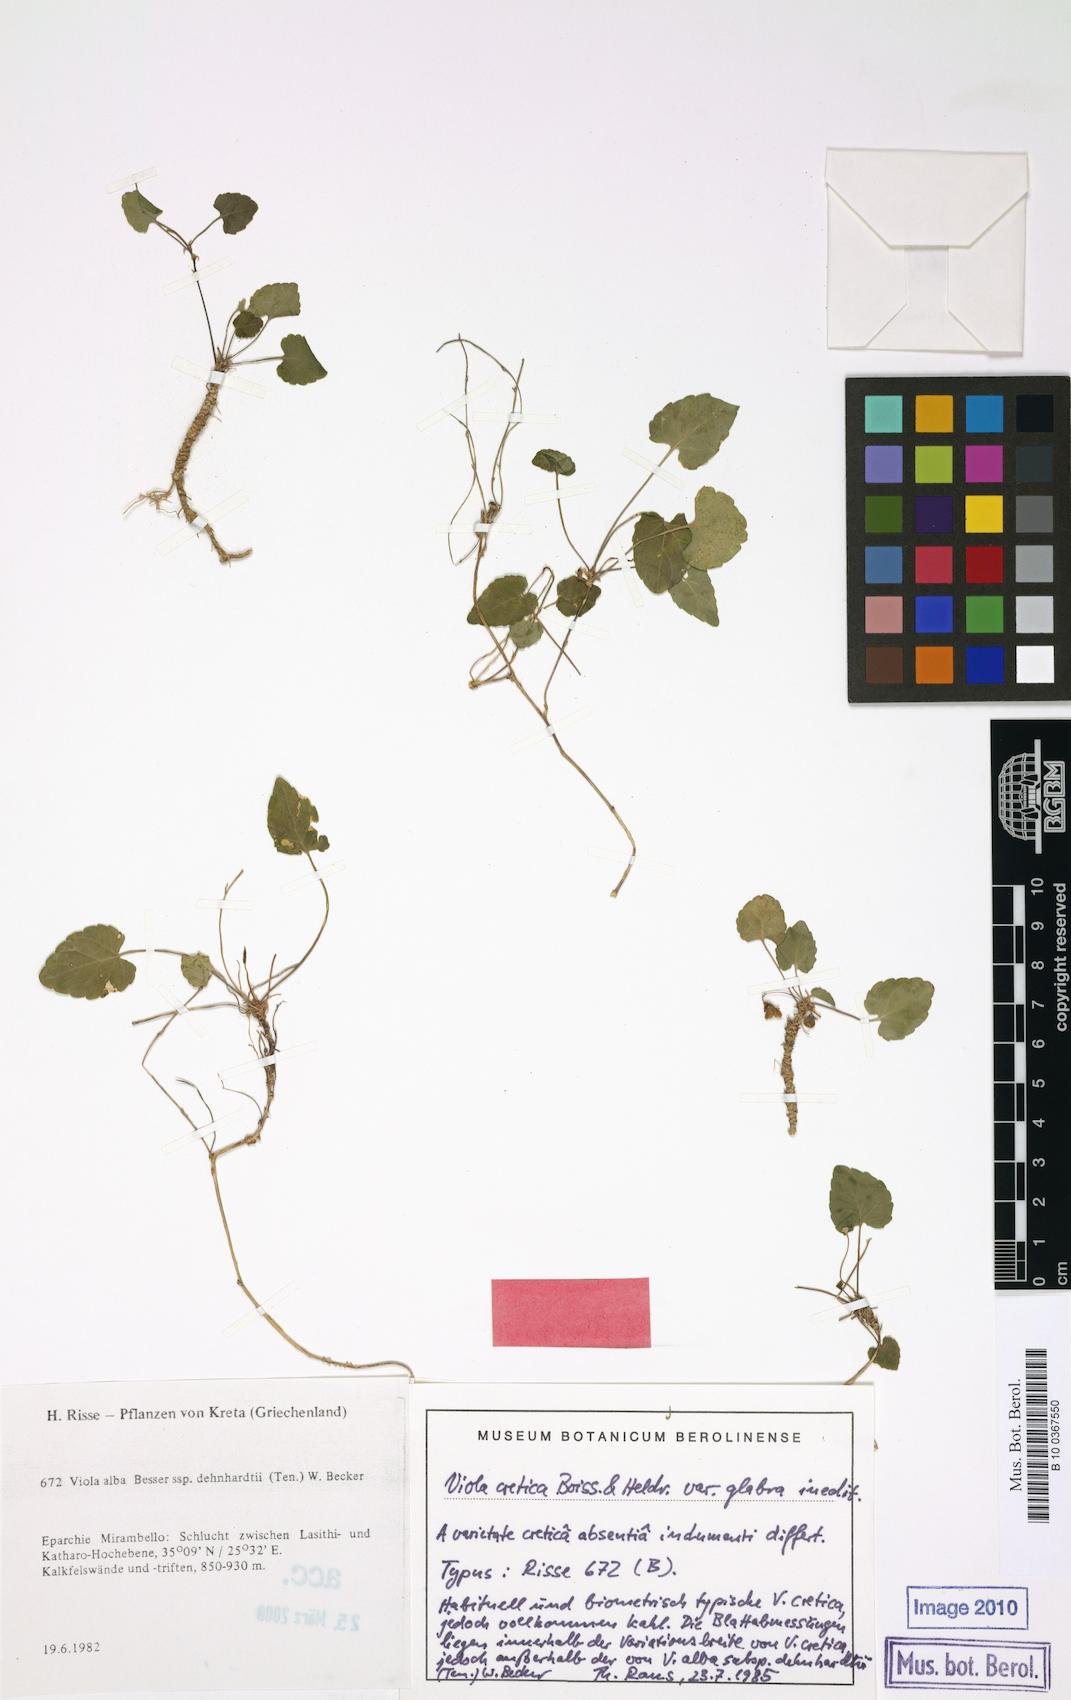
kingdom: Plantae
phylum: Tracheophyta
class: Magnoliopsida
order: Malpighiales
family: Violaceae
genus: Viola
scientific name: Viola alba
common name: White violet
